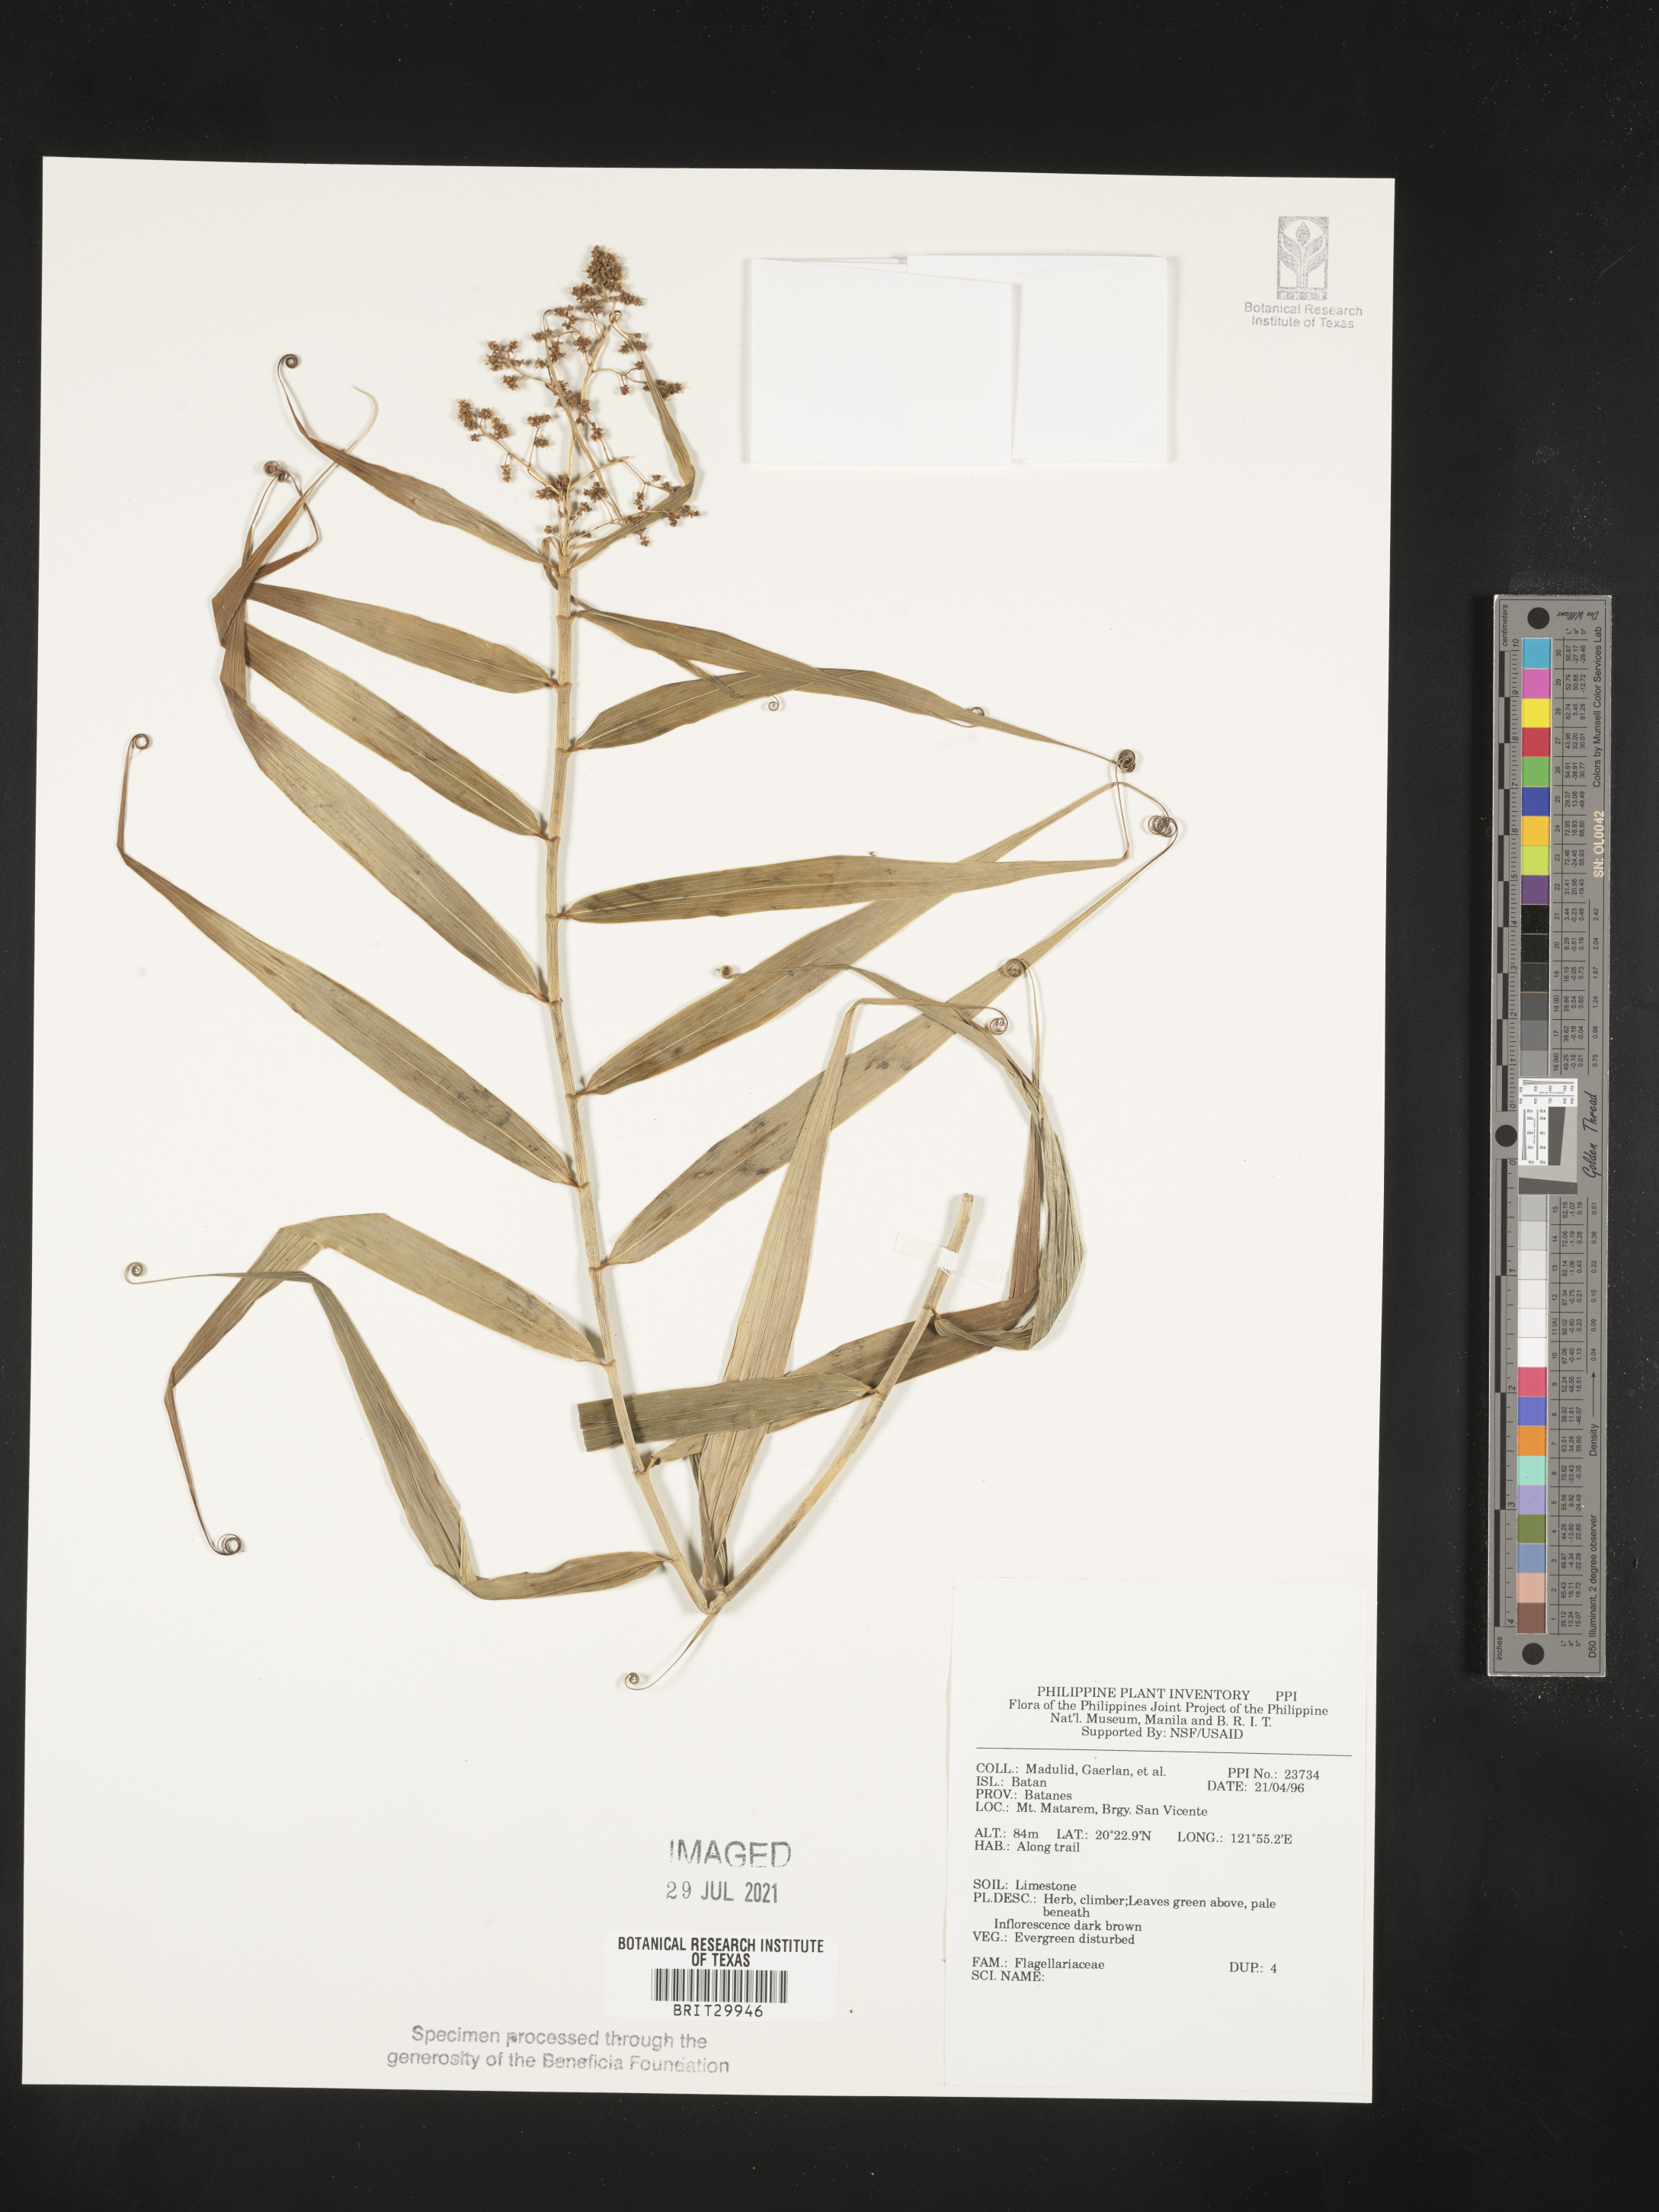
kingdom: Plantae
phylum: Tracheophyta
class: Liliopsida
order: Poales
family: Flagellariaceae
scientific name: Flagellariaceae
